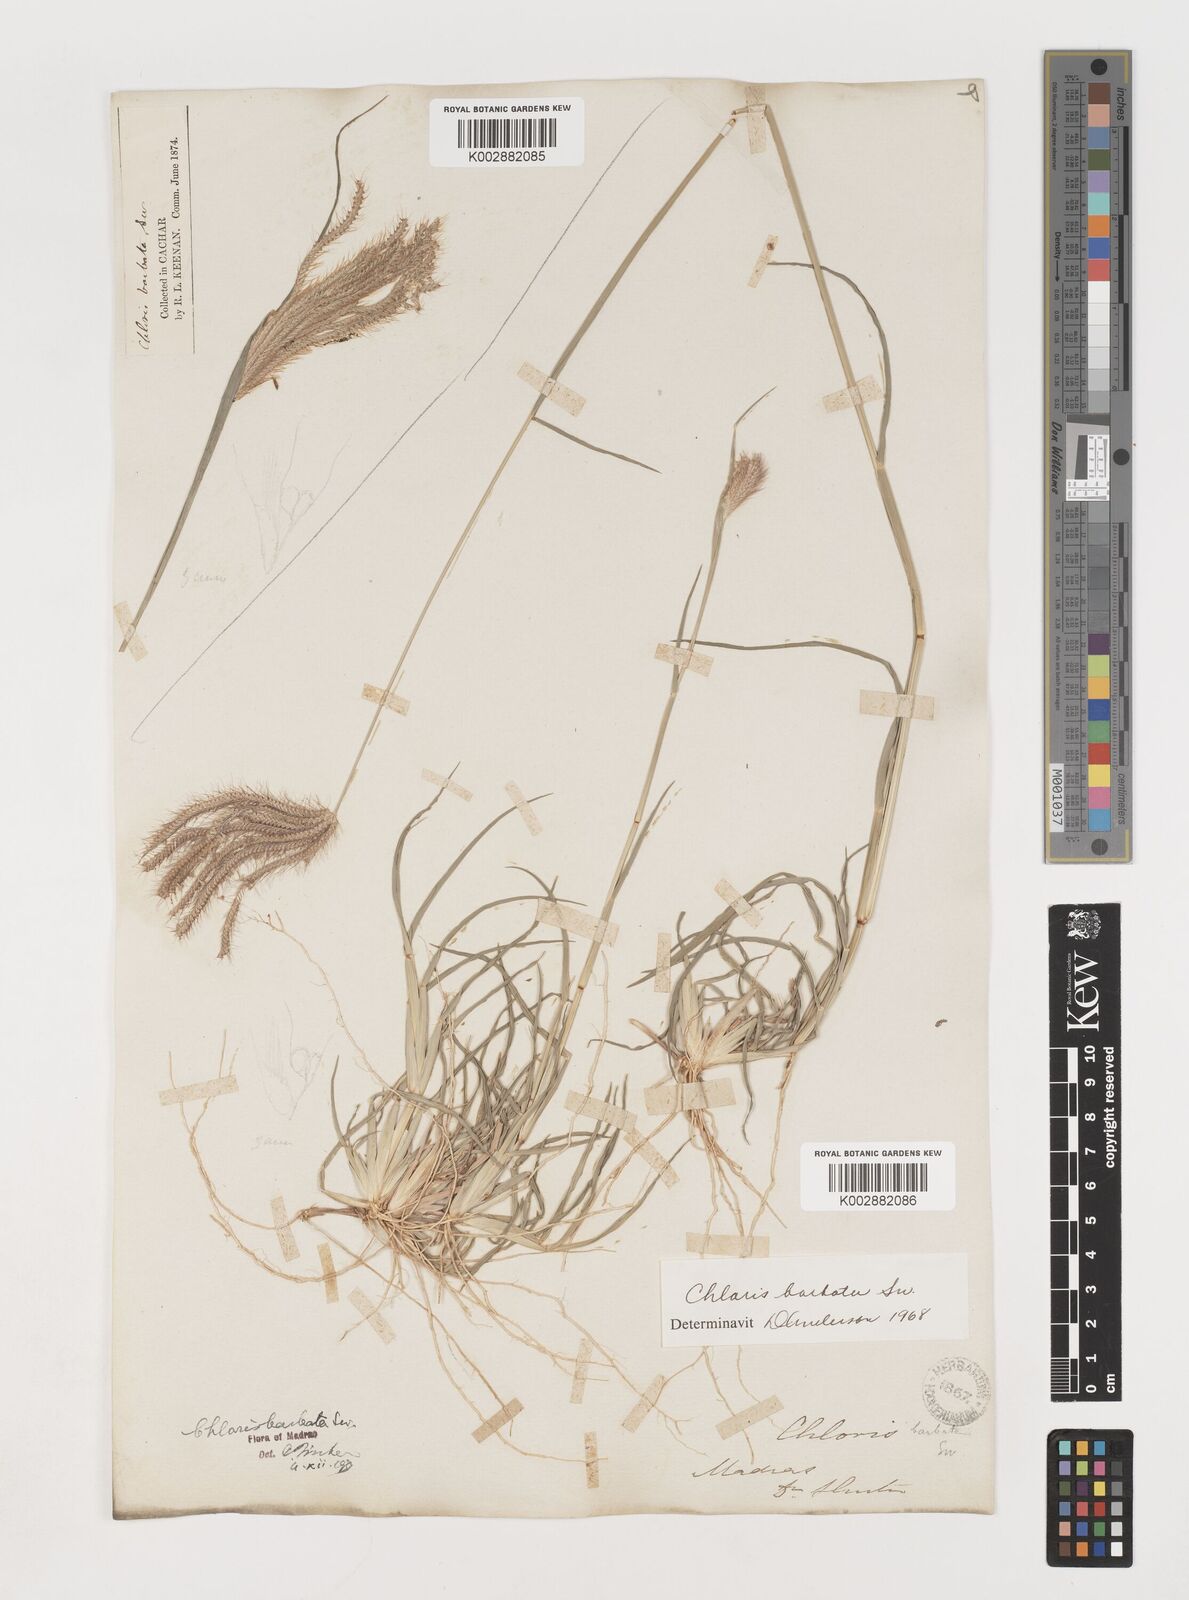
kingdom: Plantae
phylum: Tracheophyta
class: Liliopsida
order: Poales
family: Poaceae
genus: Chloris
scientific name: Chloris barbata
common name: Swollen fingergrass
